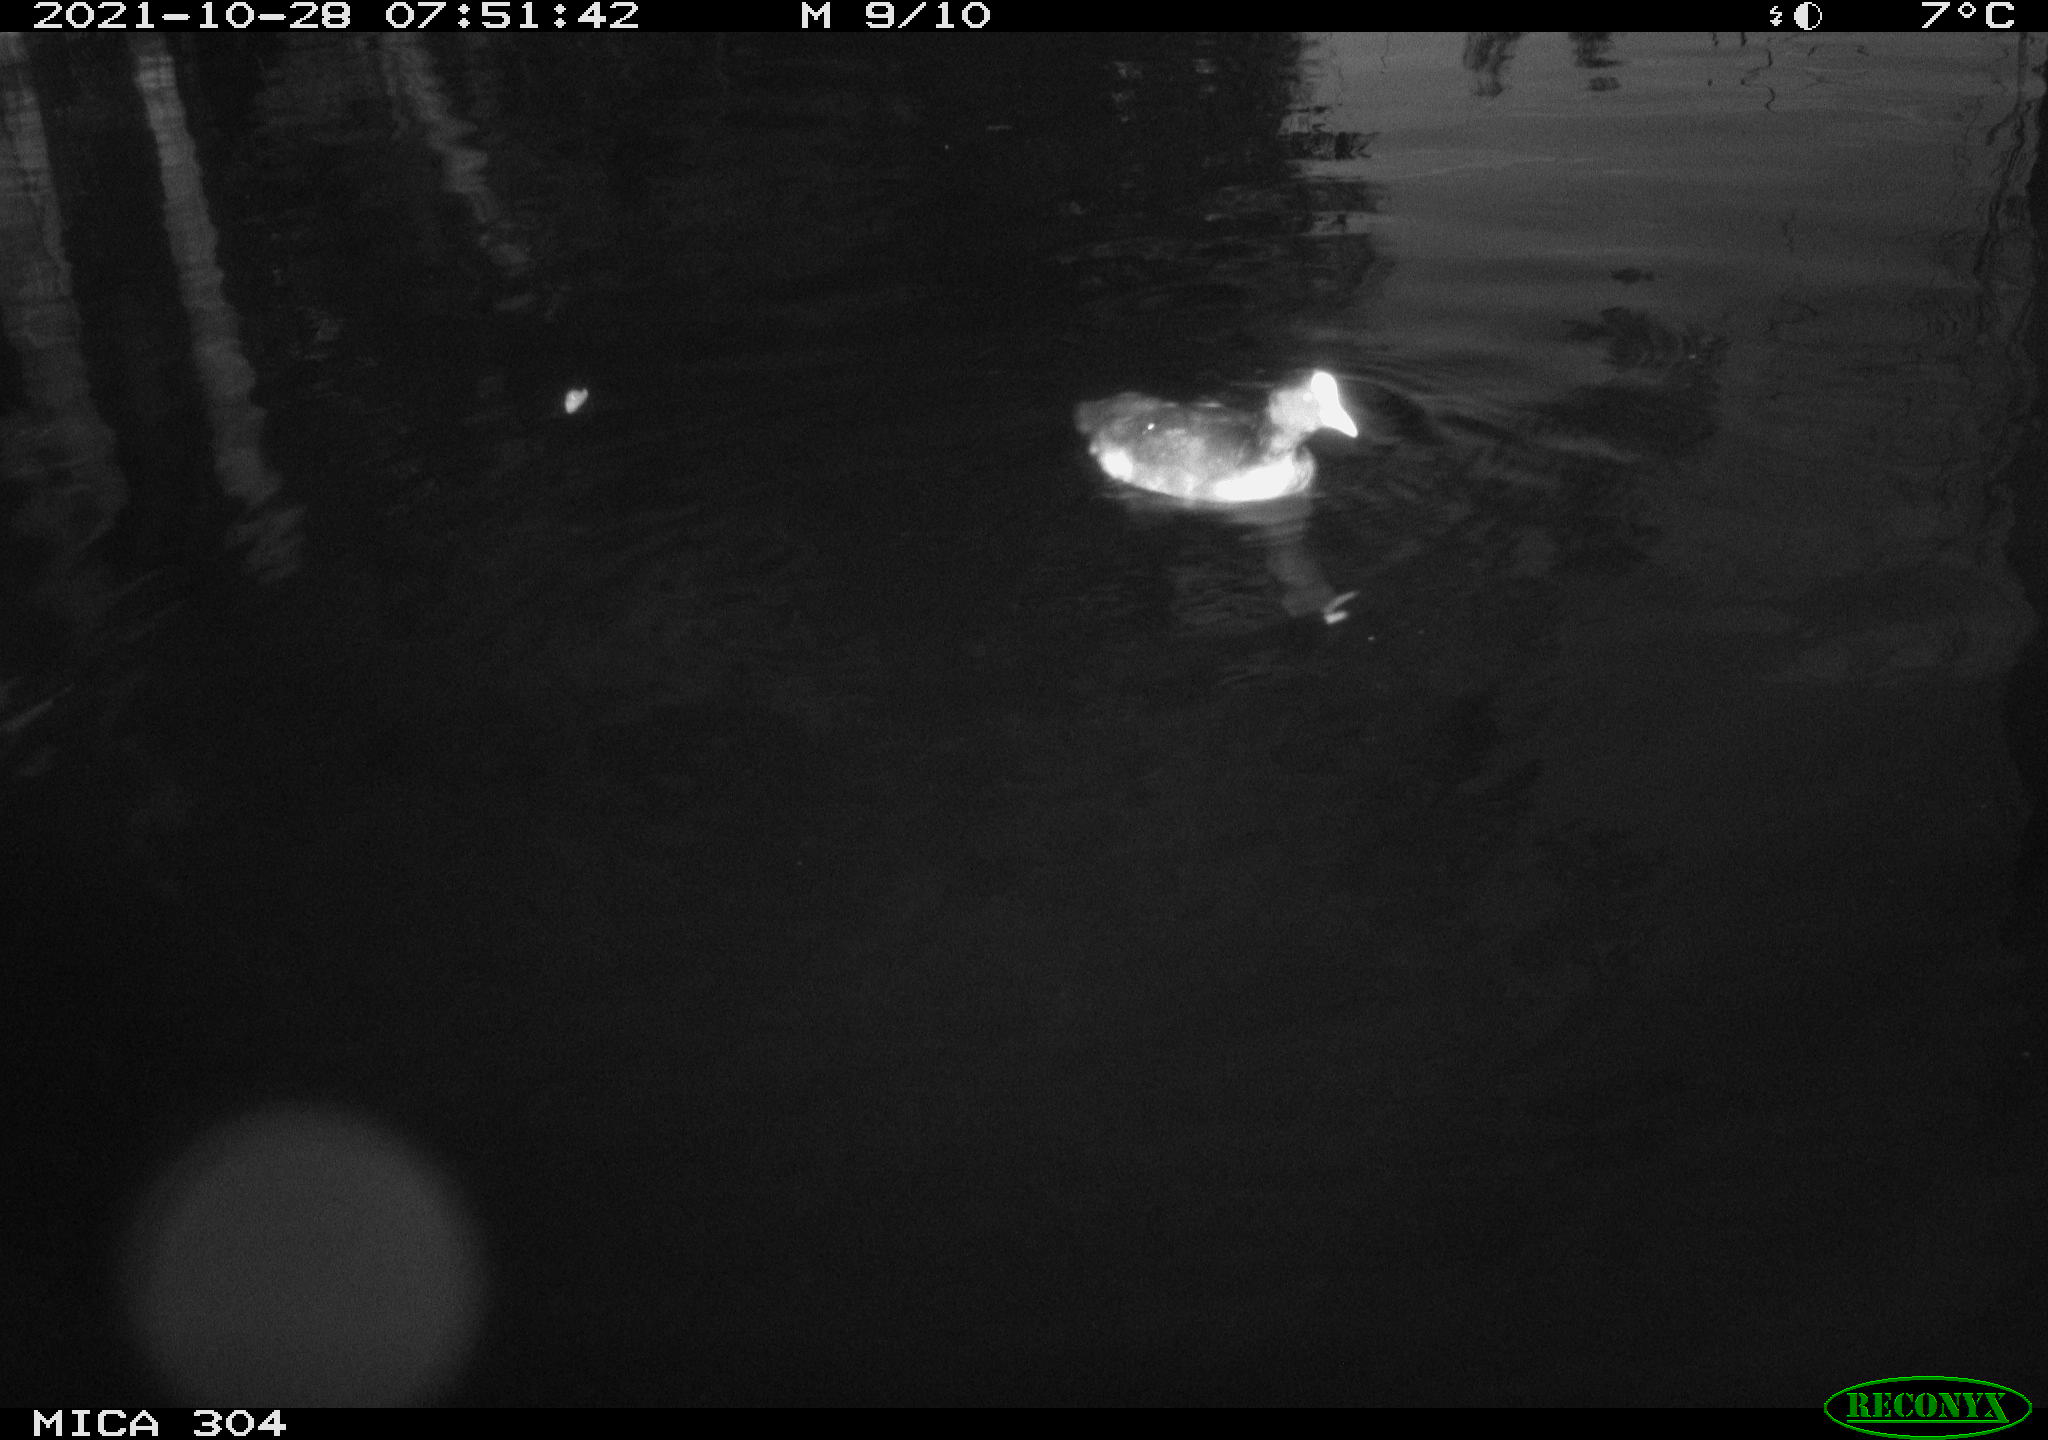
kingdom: Animalia
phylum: Chordata
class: Aves
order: Anseriformes
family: Anatidae
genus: Mareca
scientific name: Mareca strepera
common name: Gadwall
